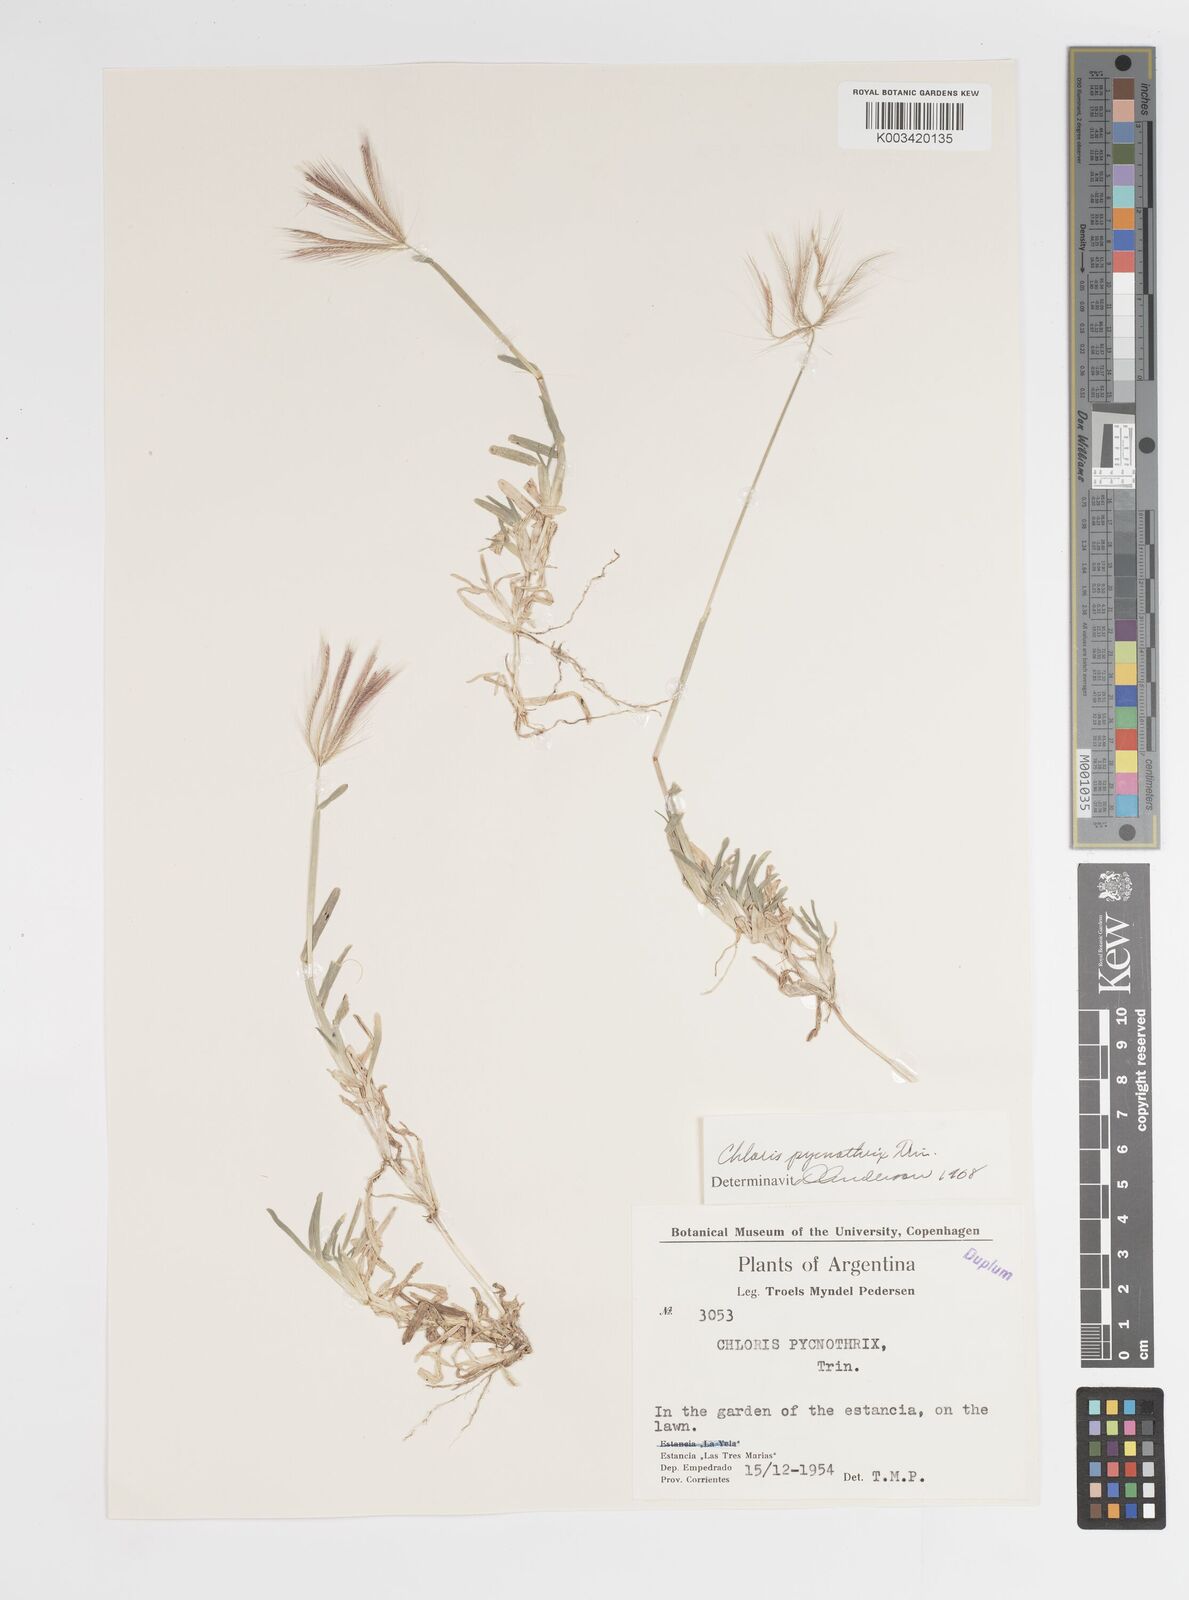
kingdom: Plantae
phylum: Tracheophyta
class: Liliopsida
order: Poales
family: Poaceae
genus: Chloris
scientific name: Chloris pycnothrix
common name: Spiderweb chloris
